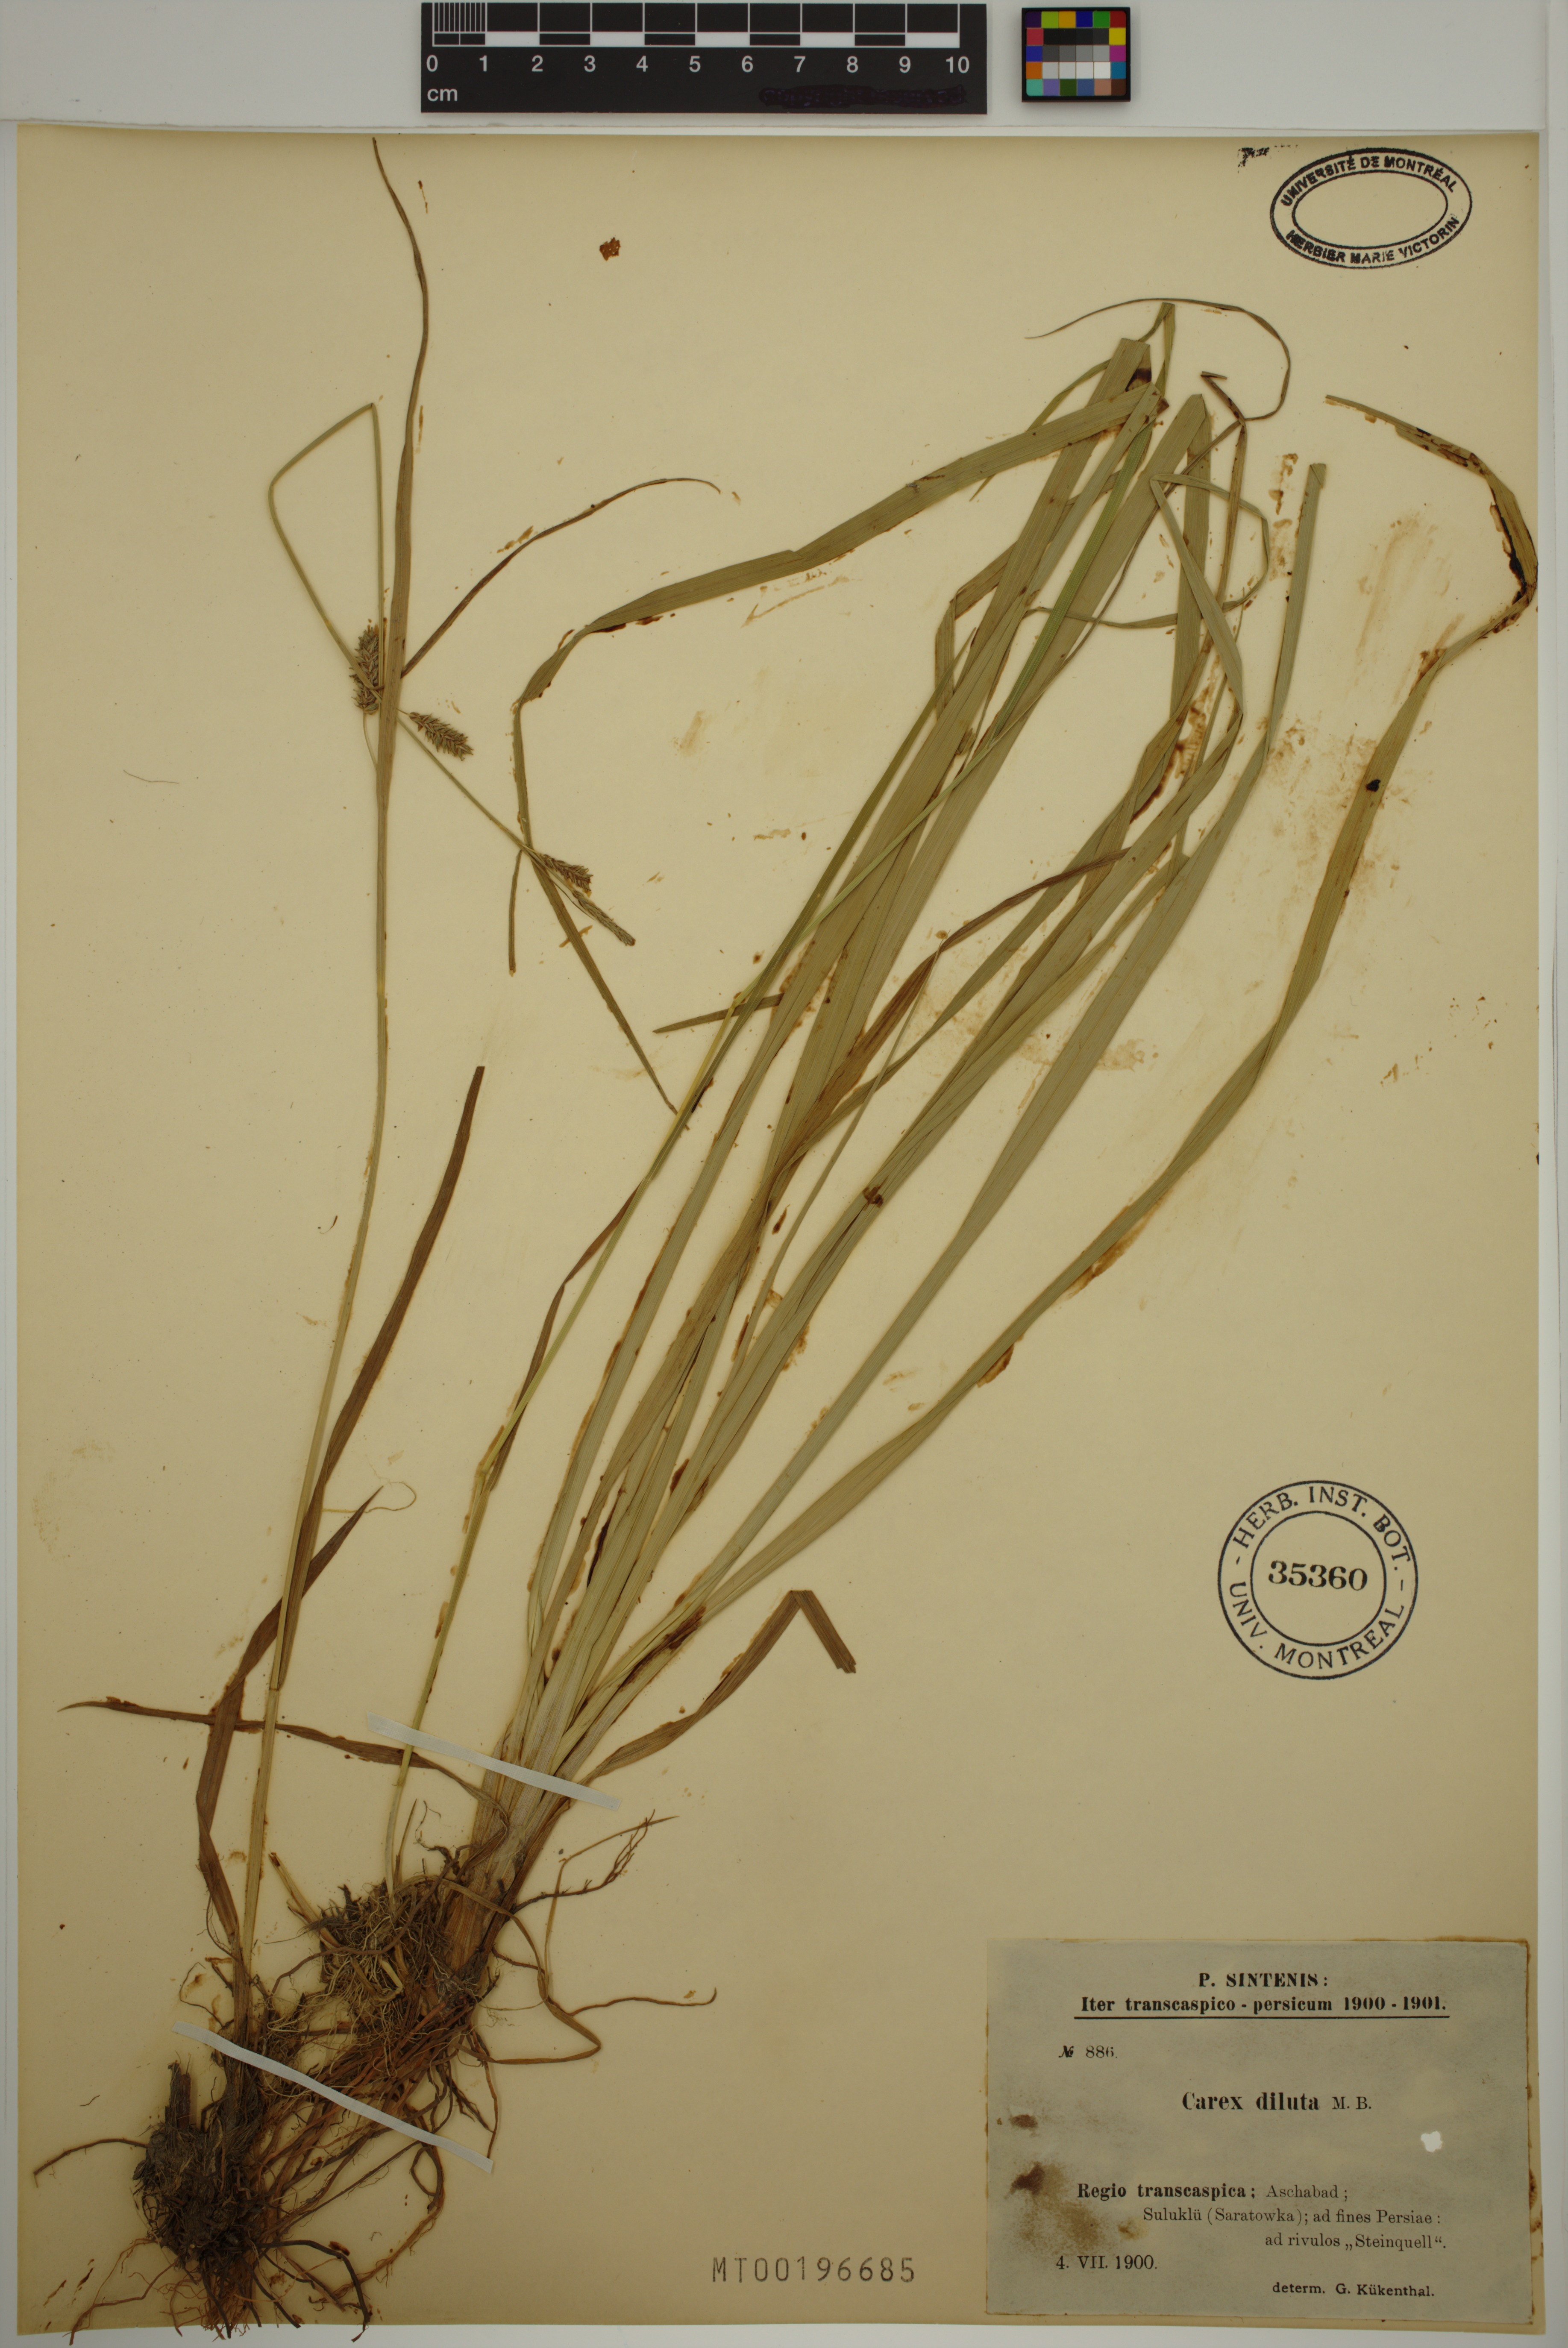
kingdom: Plantae
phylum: Tracheophyta
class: Liliopsida
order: Poales
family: Cyperaceae
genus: Carex
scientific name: Carex diluta
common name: Sedge
